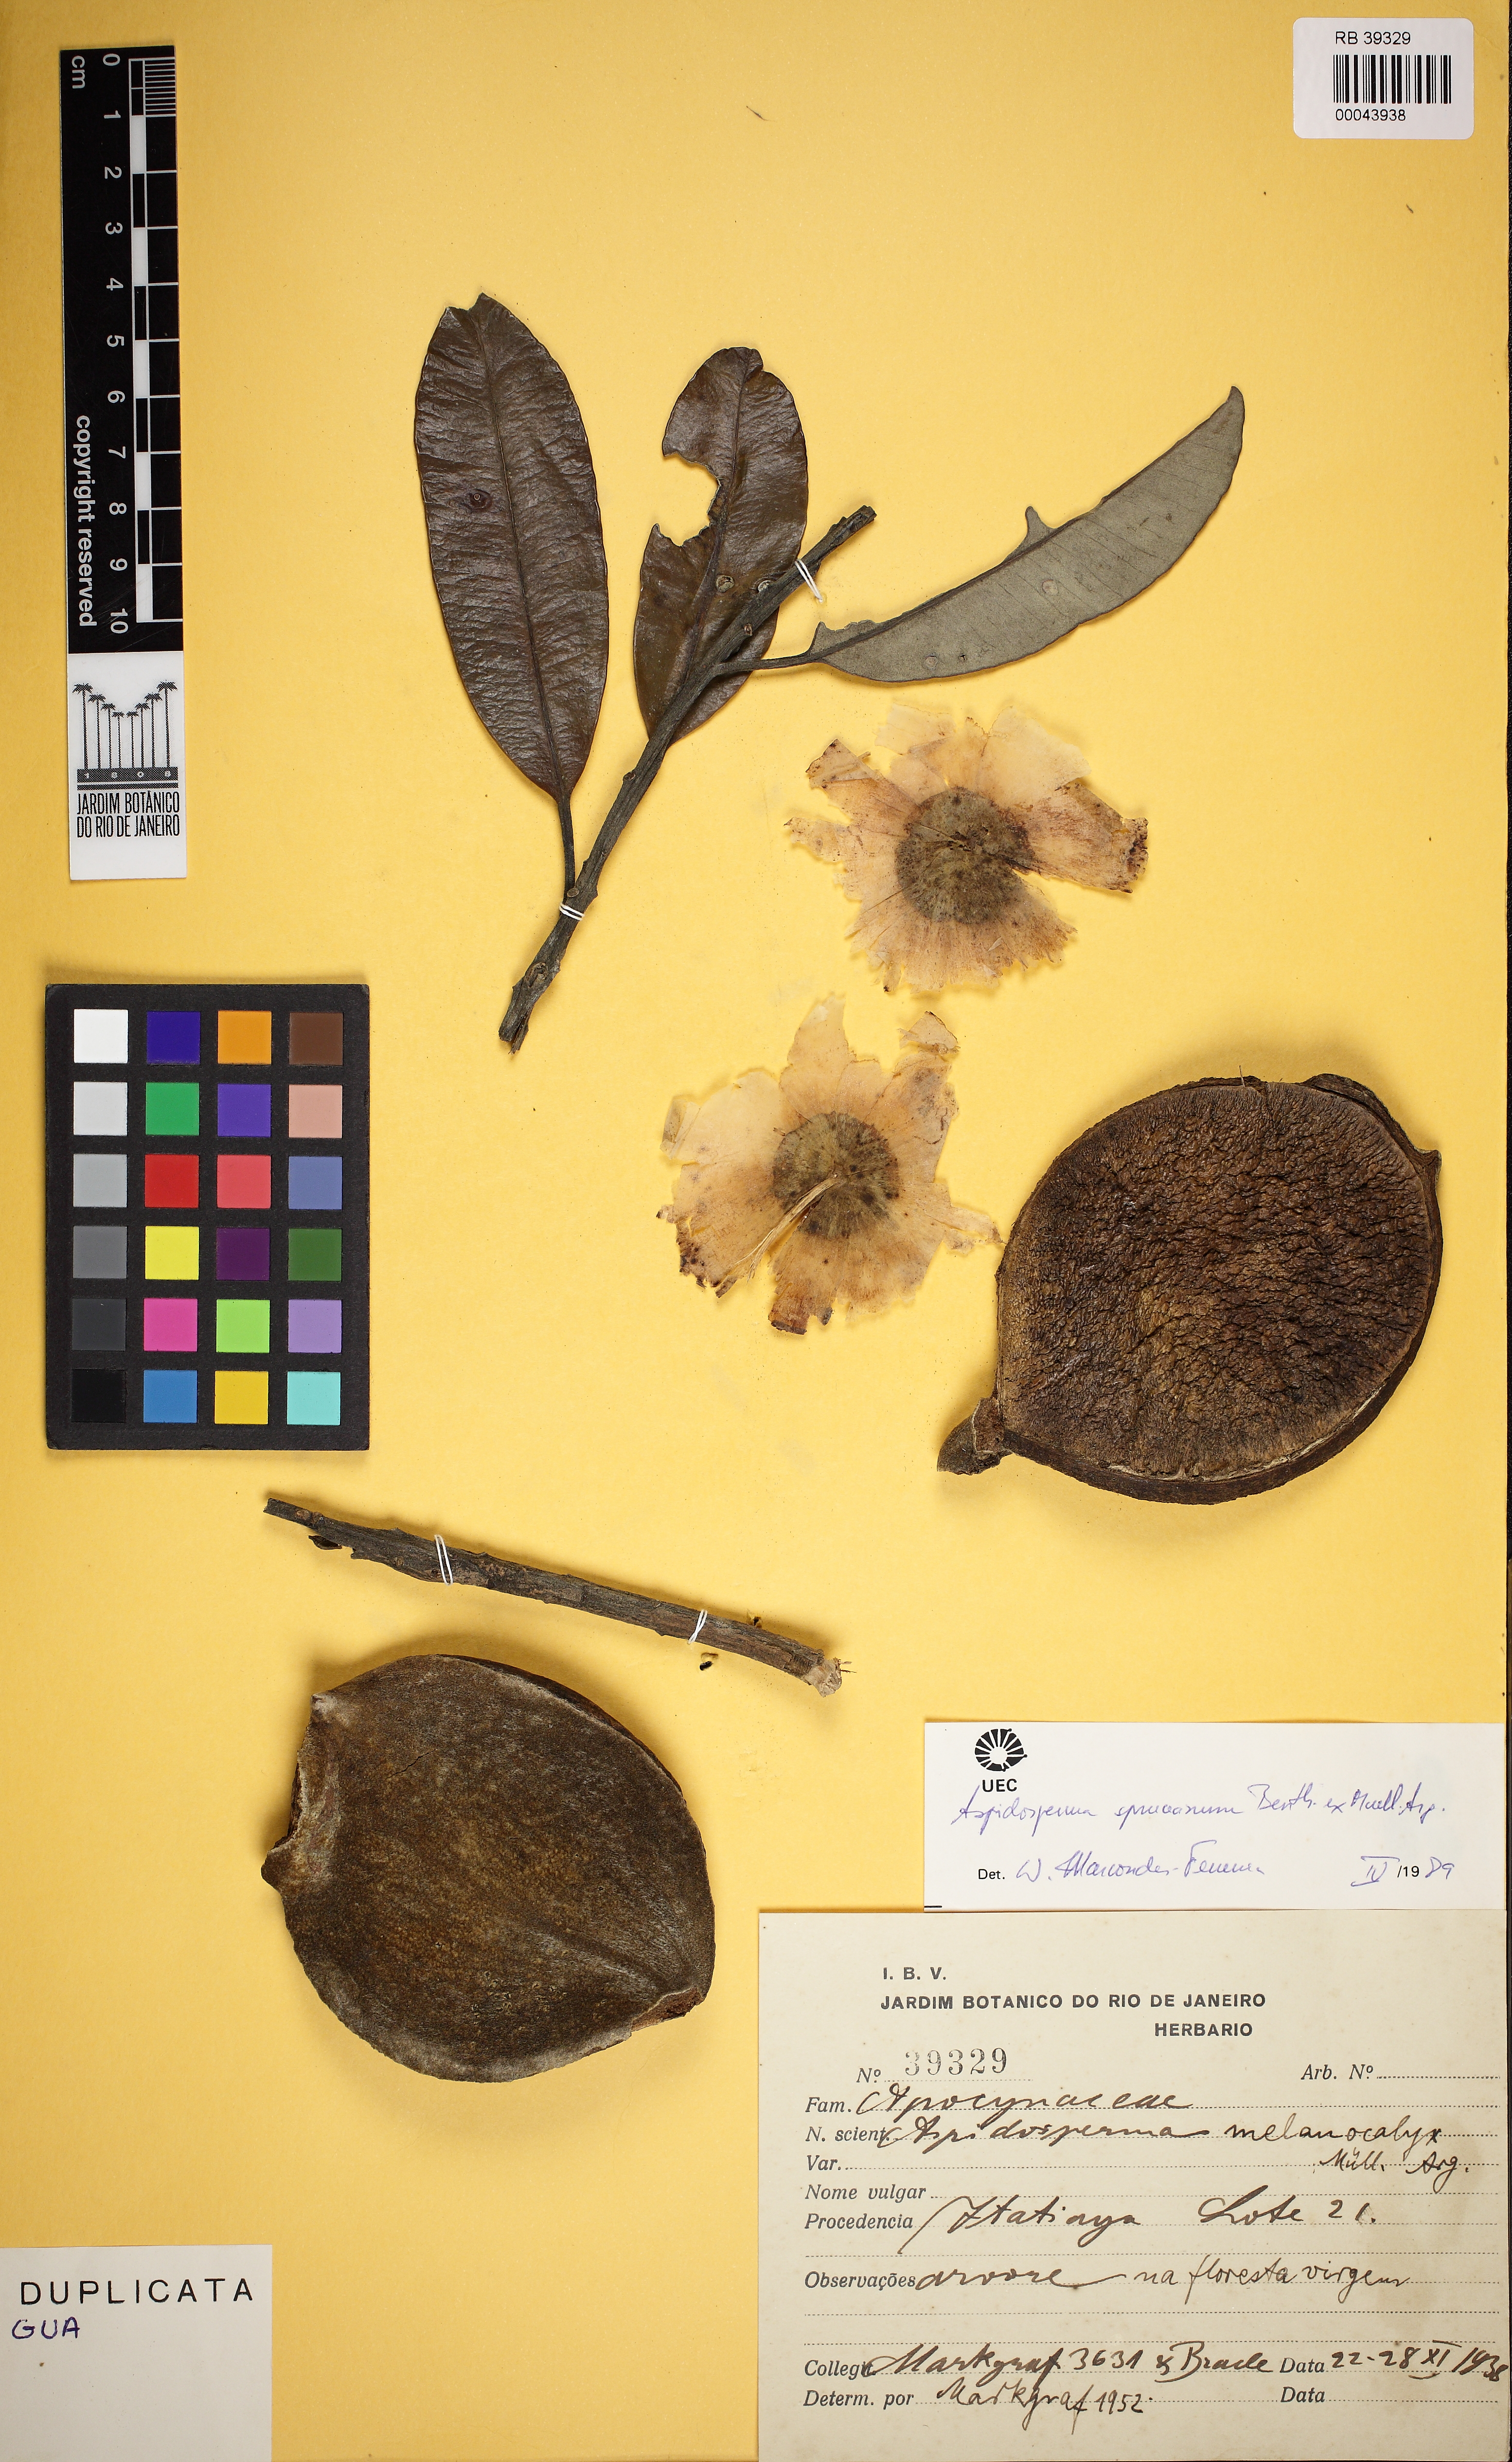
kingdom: Plantae
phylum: Tracheophyta
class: Magnoliopsida
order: Gentianales
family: Apocynaceae
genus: Aspidosperma
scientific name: Aspidosperma spruceanum
